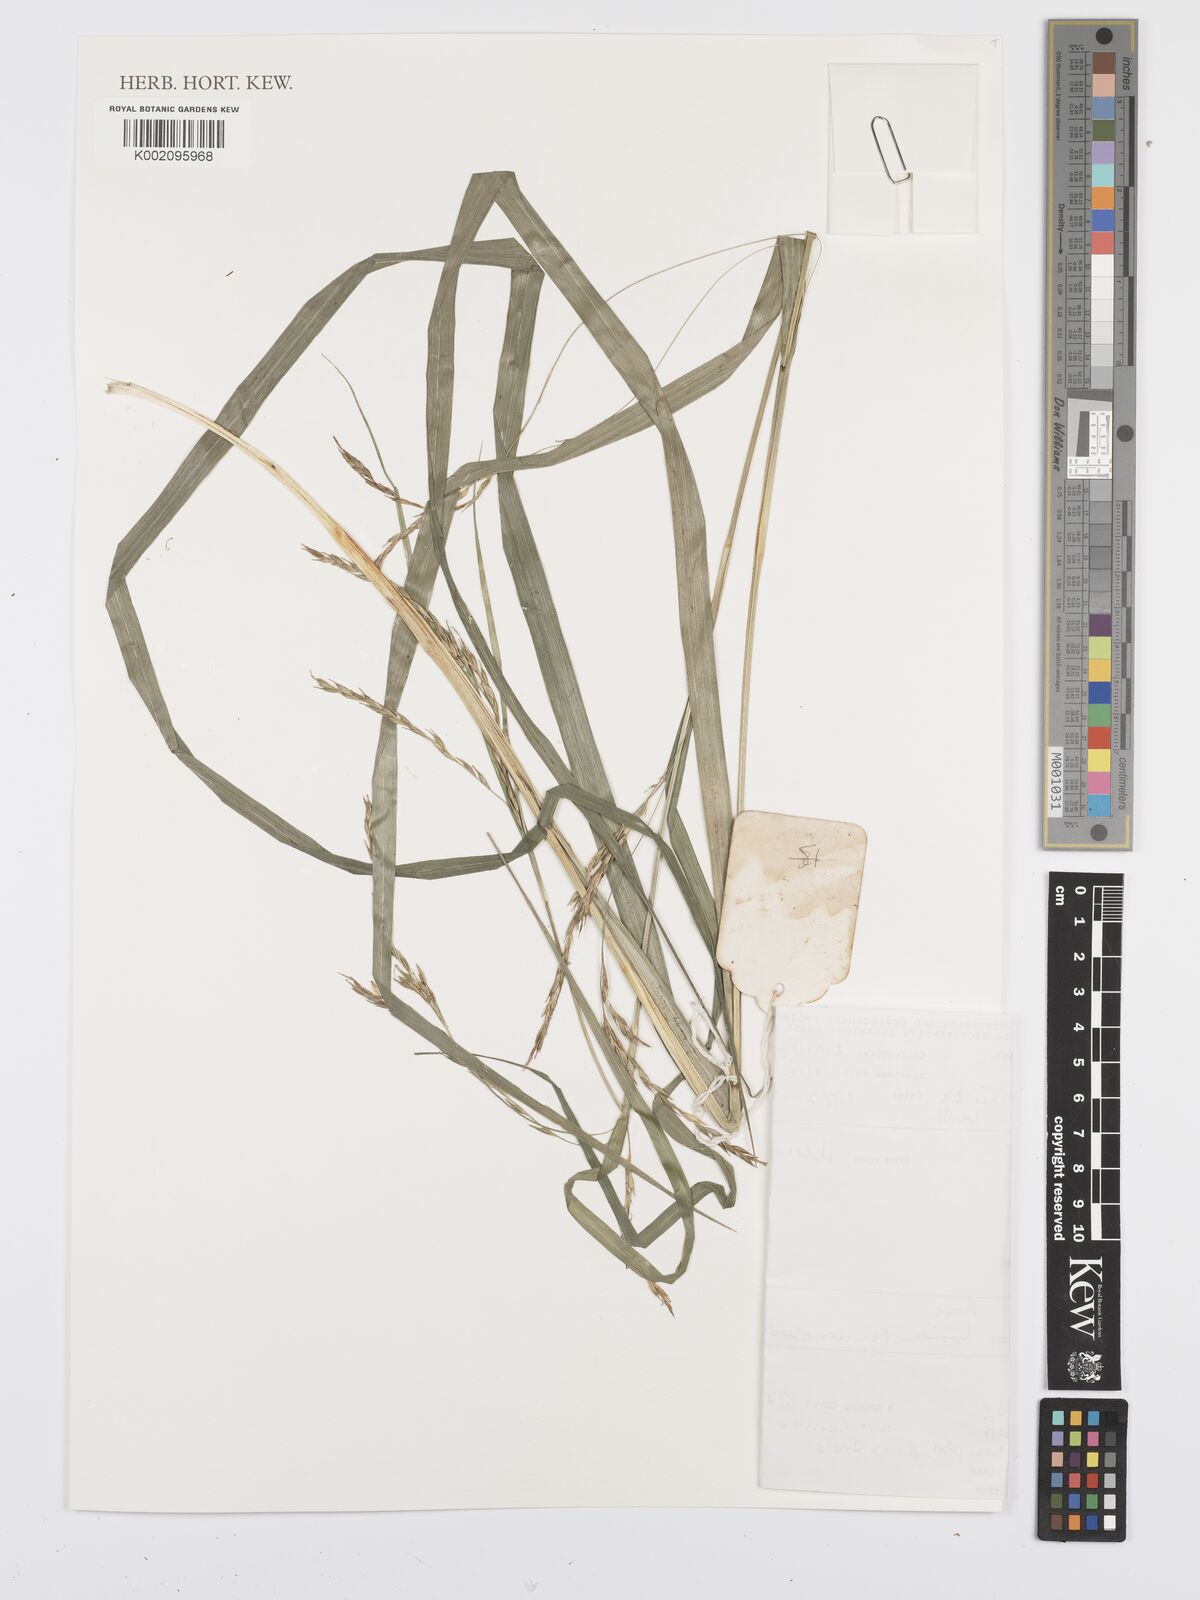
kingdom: Plantae
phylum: Tracheophyta
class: Liliopsida
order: Poales
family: Cyperaceae
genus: Carex
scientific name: Carex johnstonii
